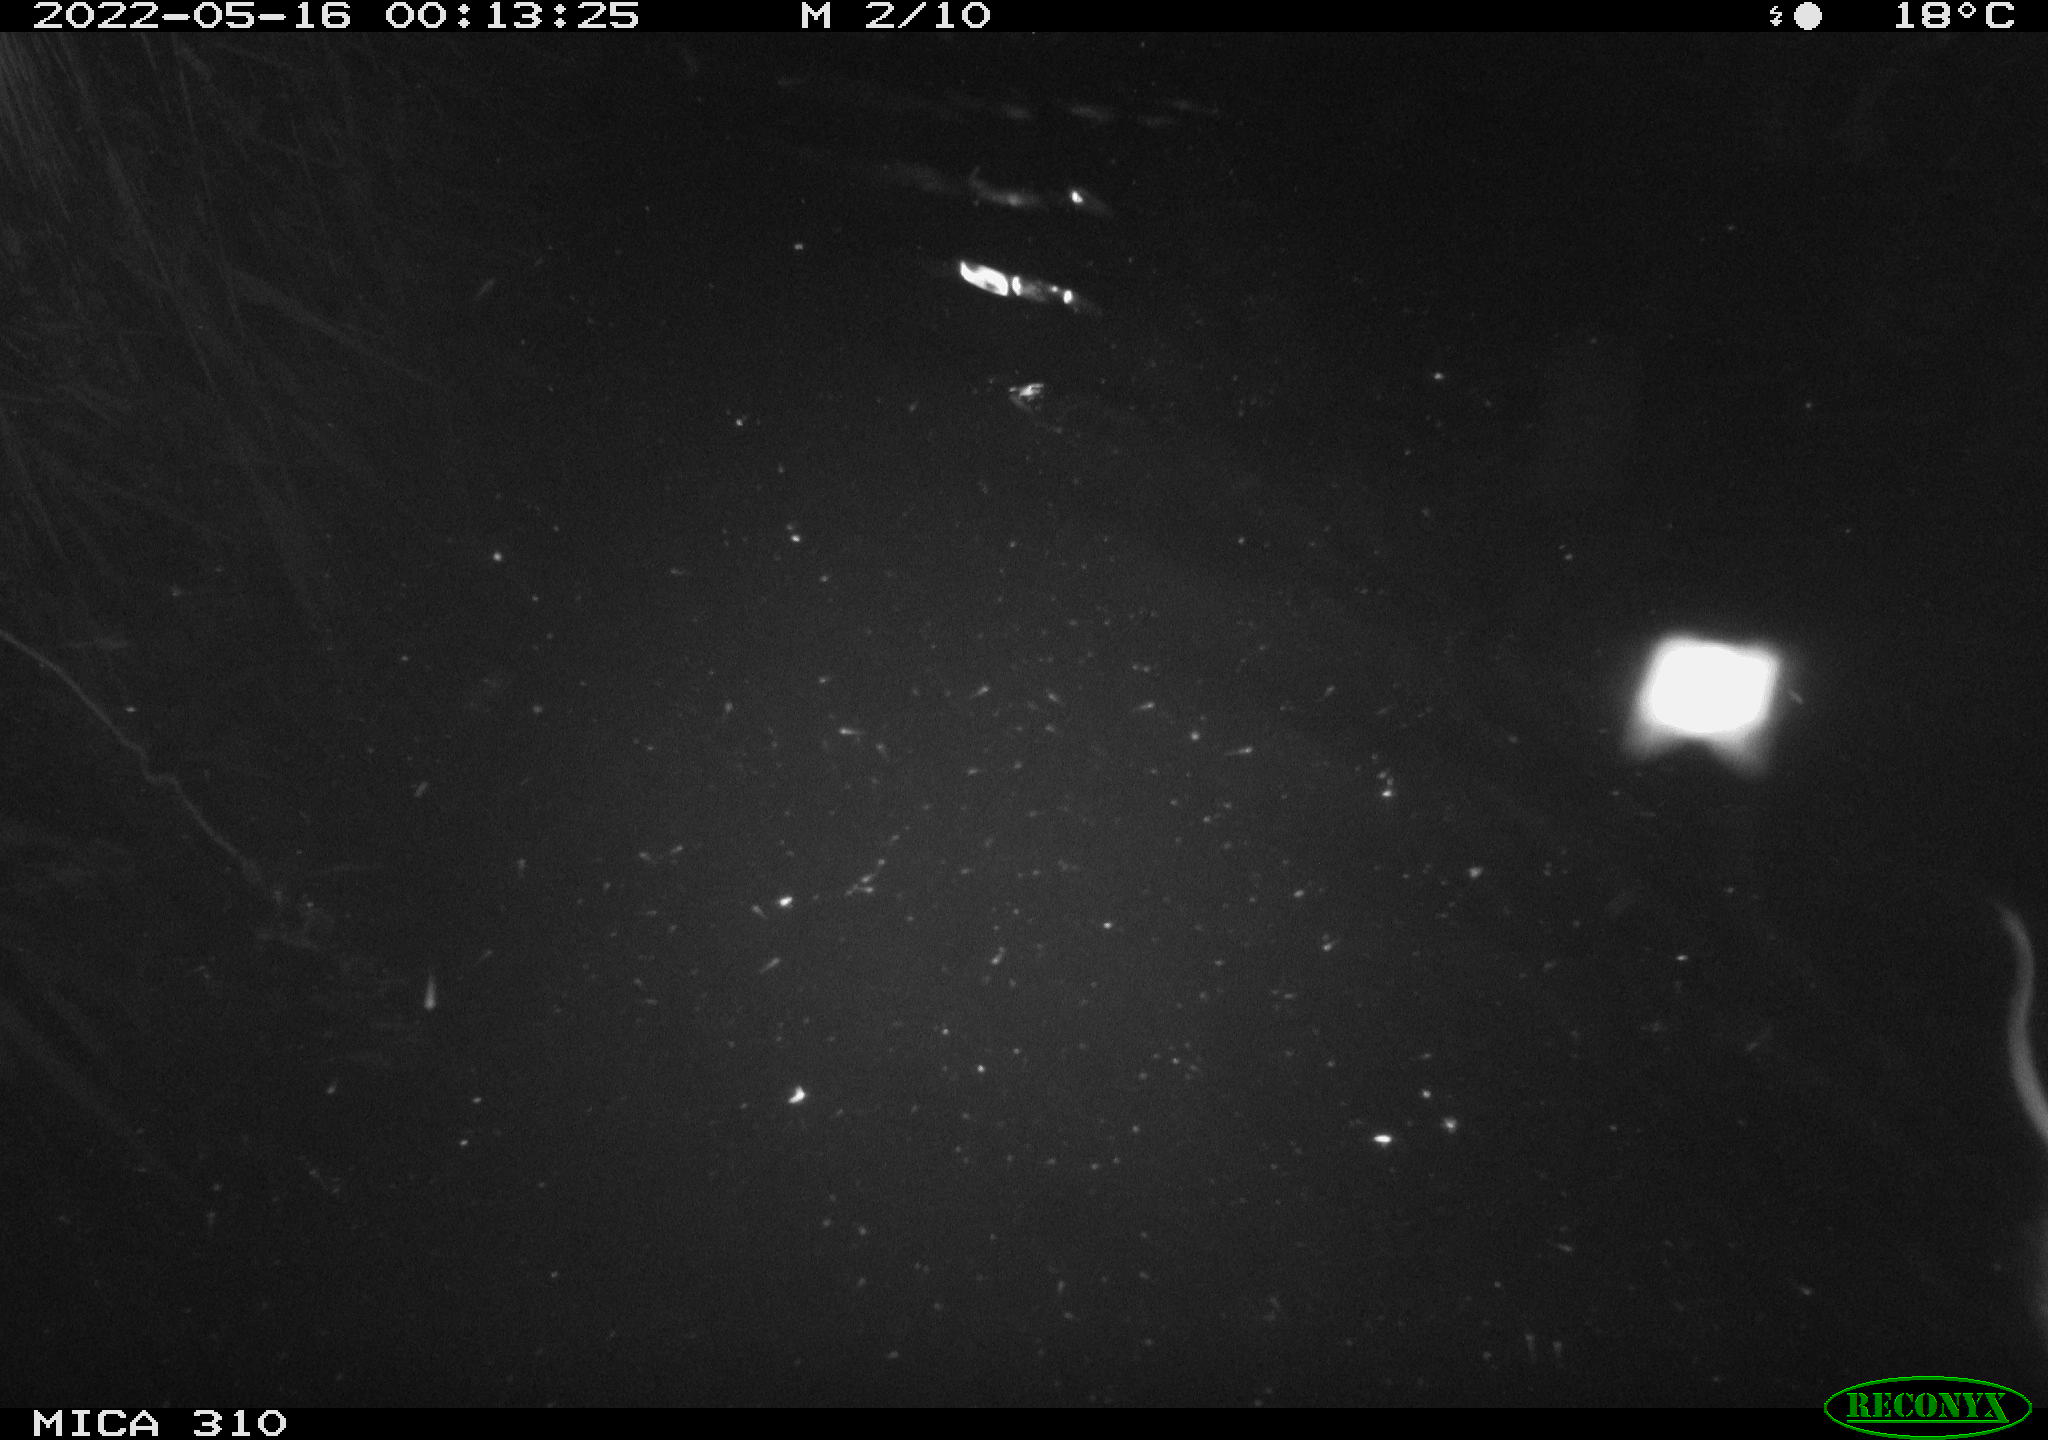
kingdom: Animalia
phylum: Chordata
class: Mammalia
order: Rodentia
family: Cricetidae
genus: Ondatra
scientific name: Ondatra zibethicus
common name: Muskrat
